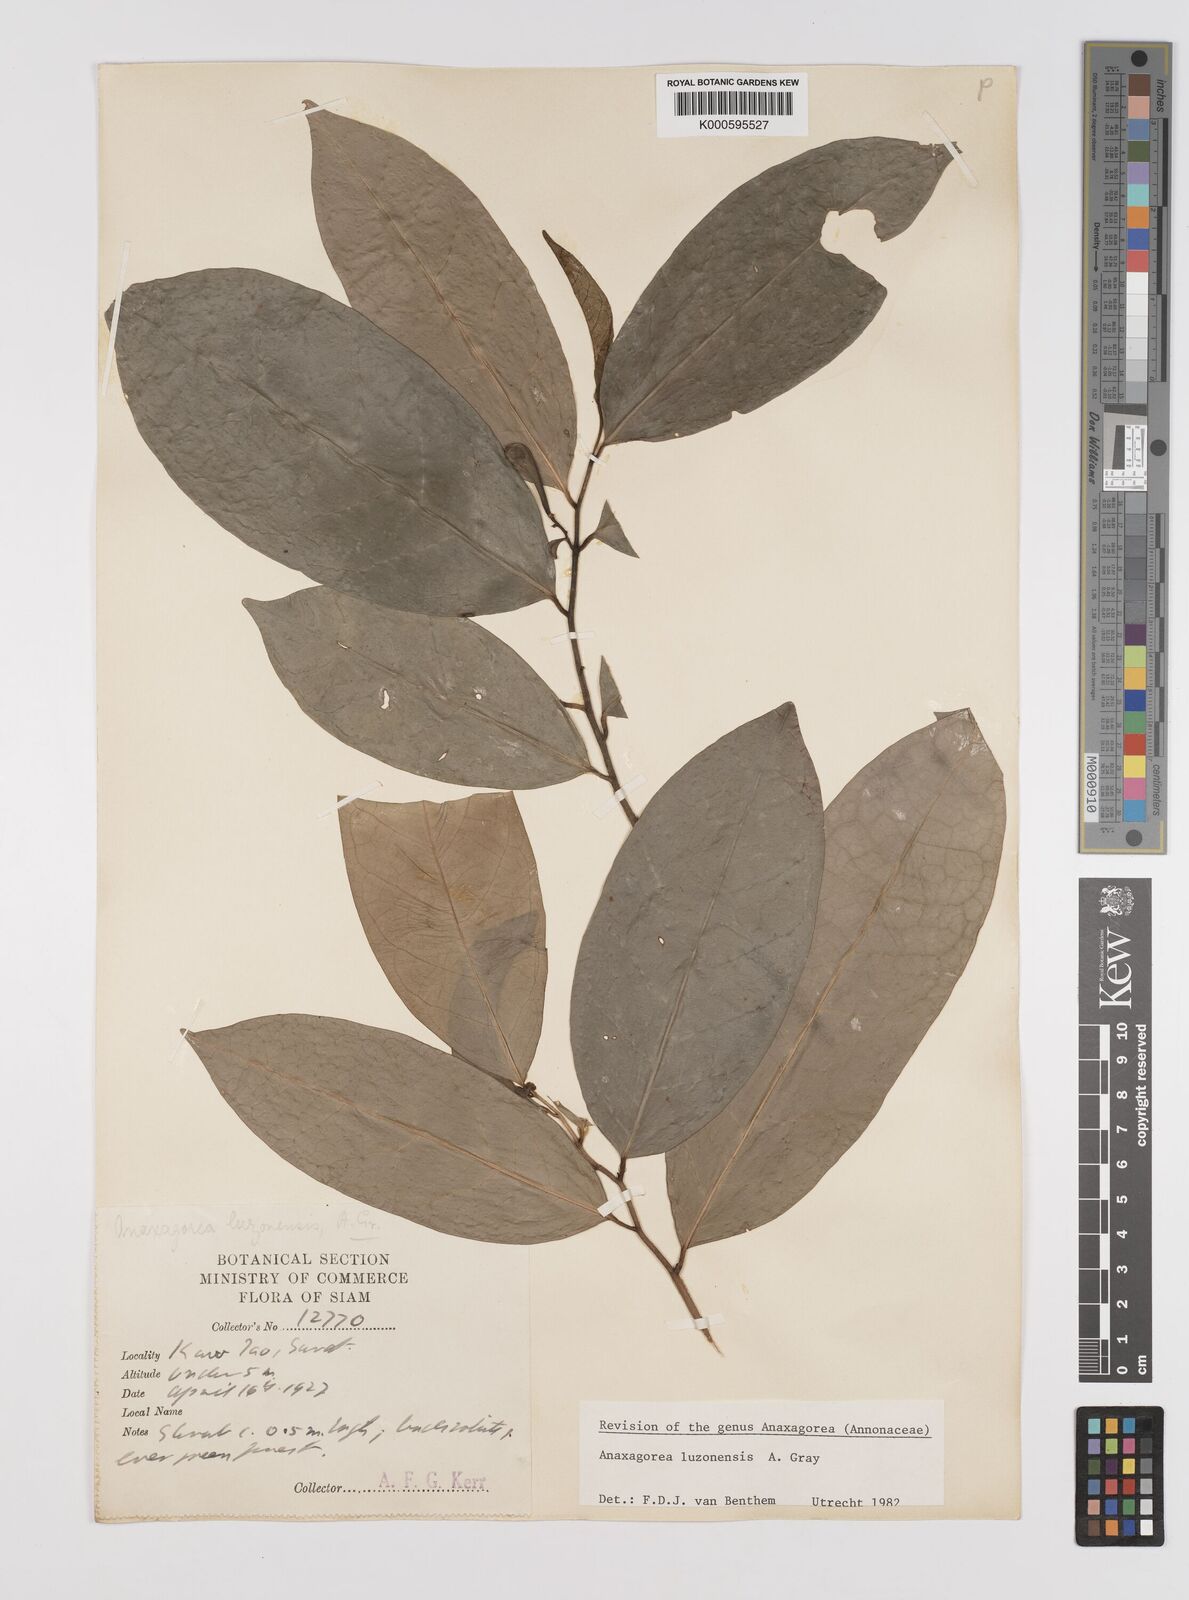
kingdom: Plantae
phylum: Tracheophyta
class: Magnoliopsida
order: Magnoliales
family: Annonaceae
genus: Anaxagorea
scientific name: Anaxagorea luzonensis
